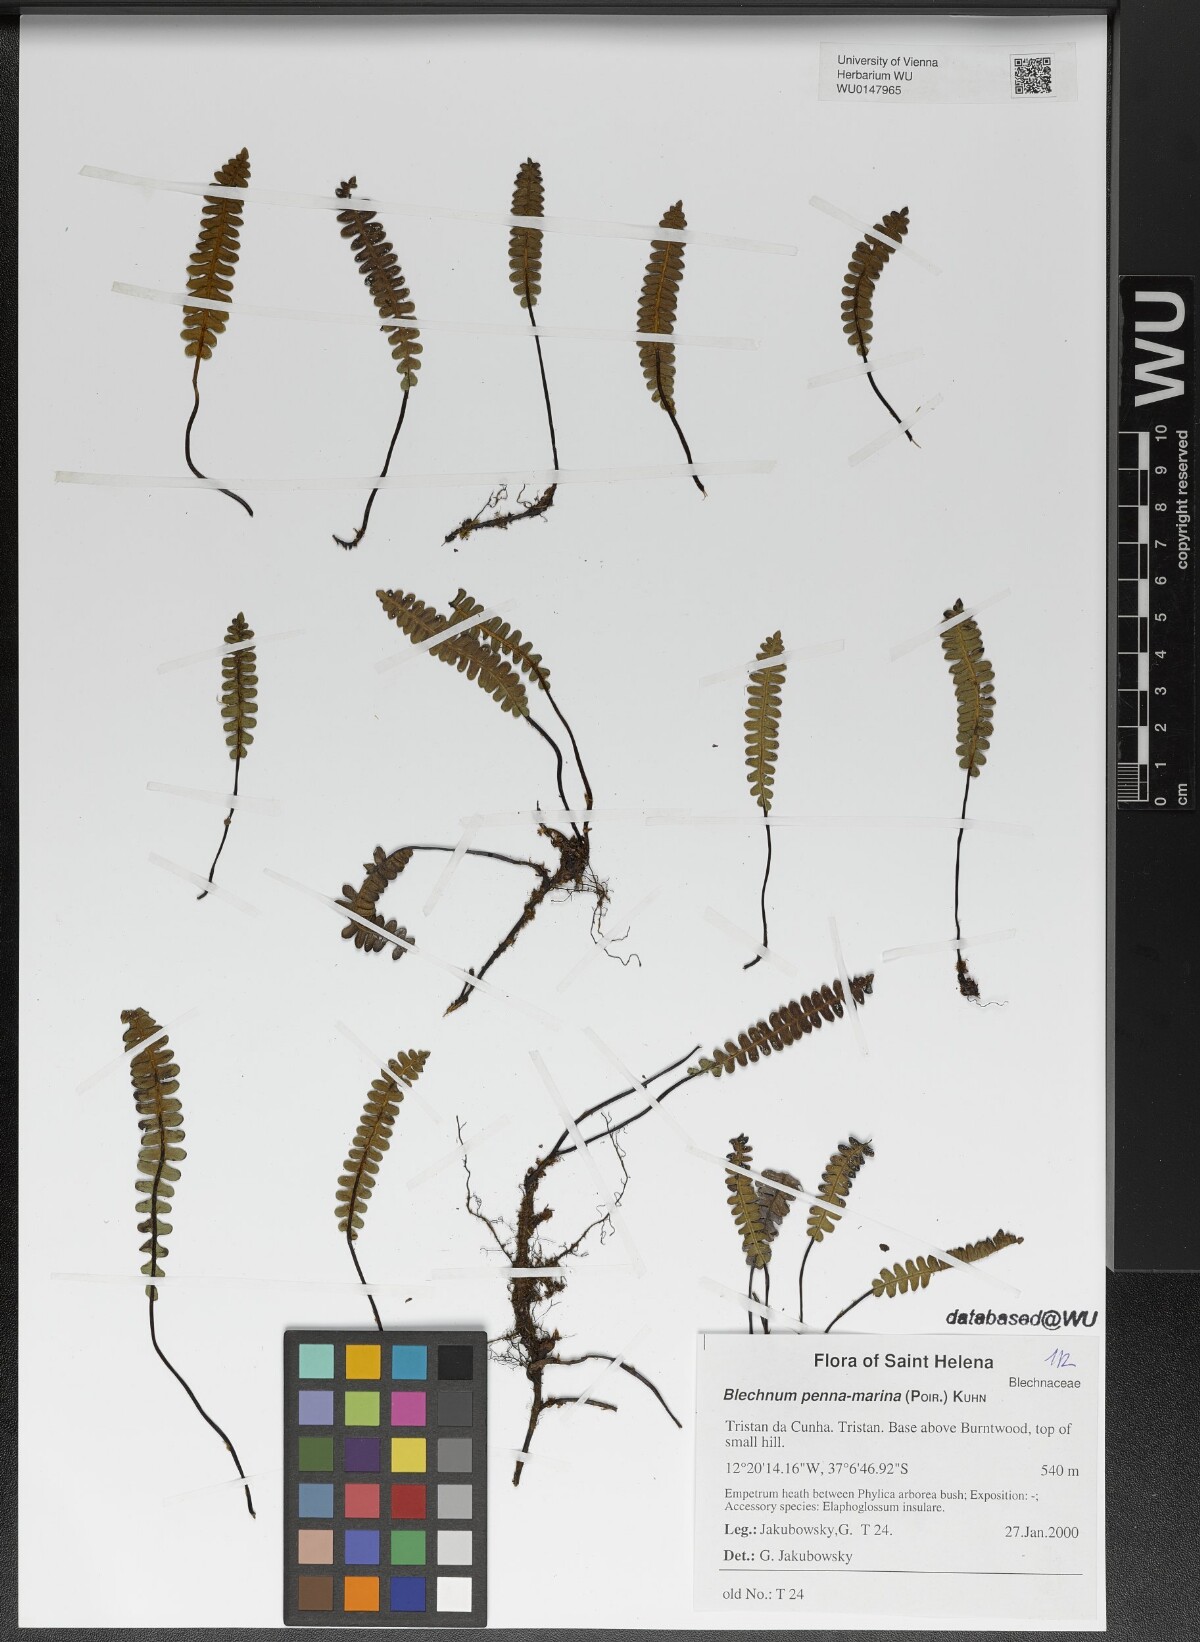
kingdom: Plantae
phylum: Tracheophyta
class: Polypodiopsida
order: Polypodiales
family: Blechnaceae
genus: Austroblechnum
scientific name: Austroblechnum penna-marina
